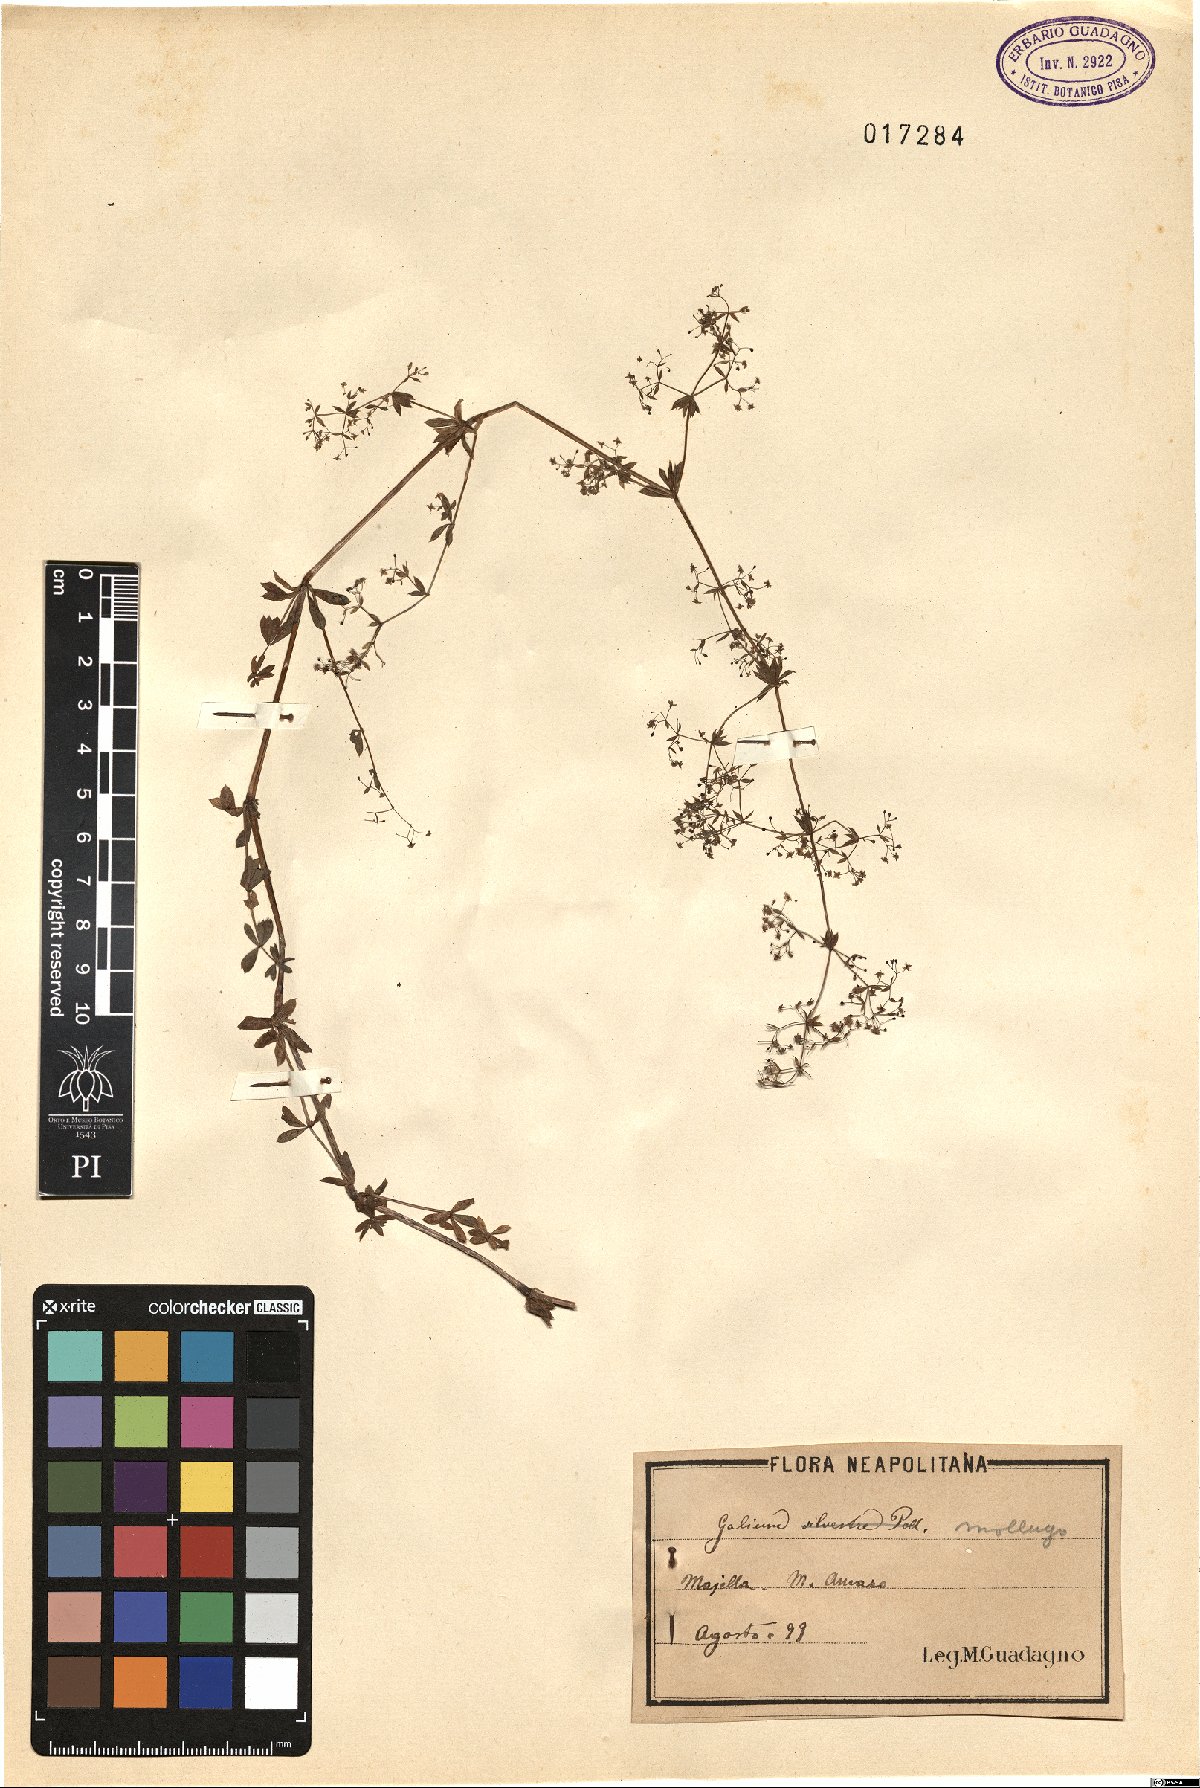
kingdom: Plantae
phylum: Tracheophyta
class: Magnoliopsida
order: Gentianales
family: Rubiaceae
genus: Galium
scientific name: Galium mollugo
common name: Hedge bedstraw
